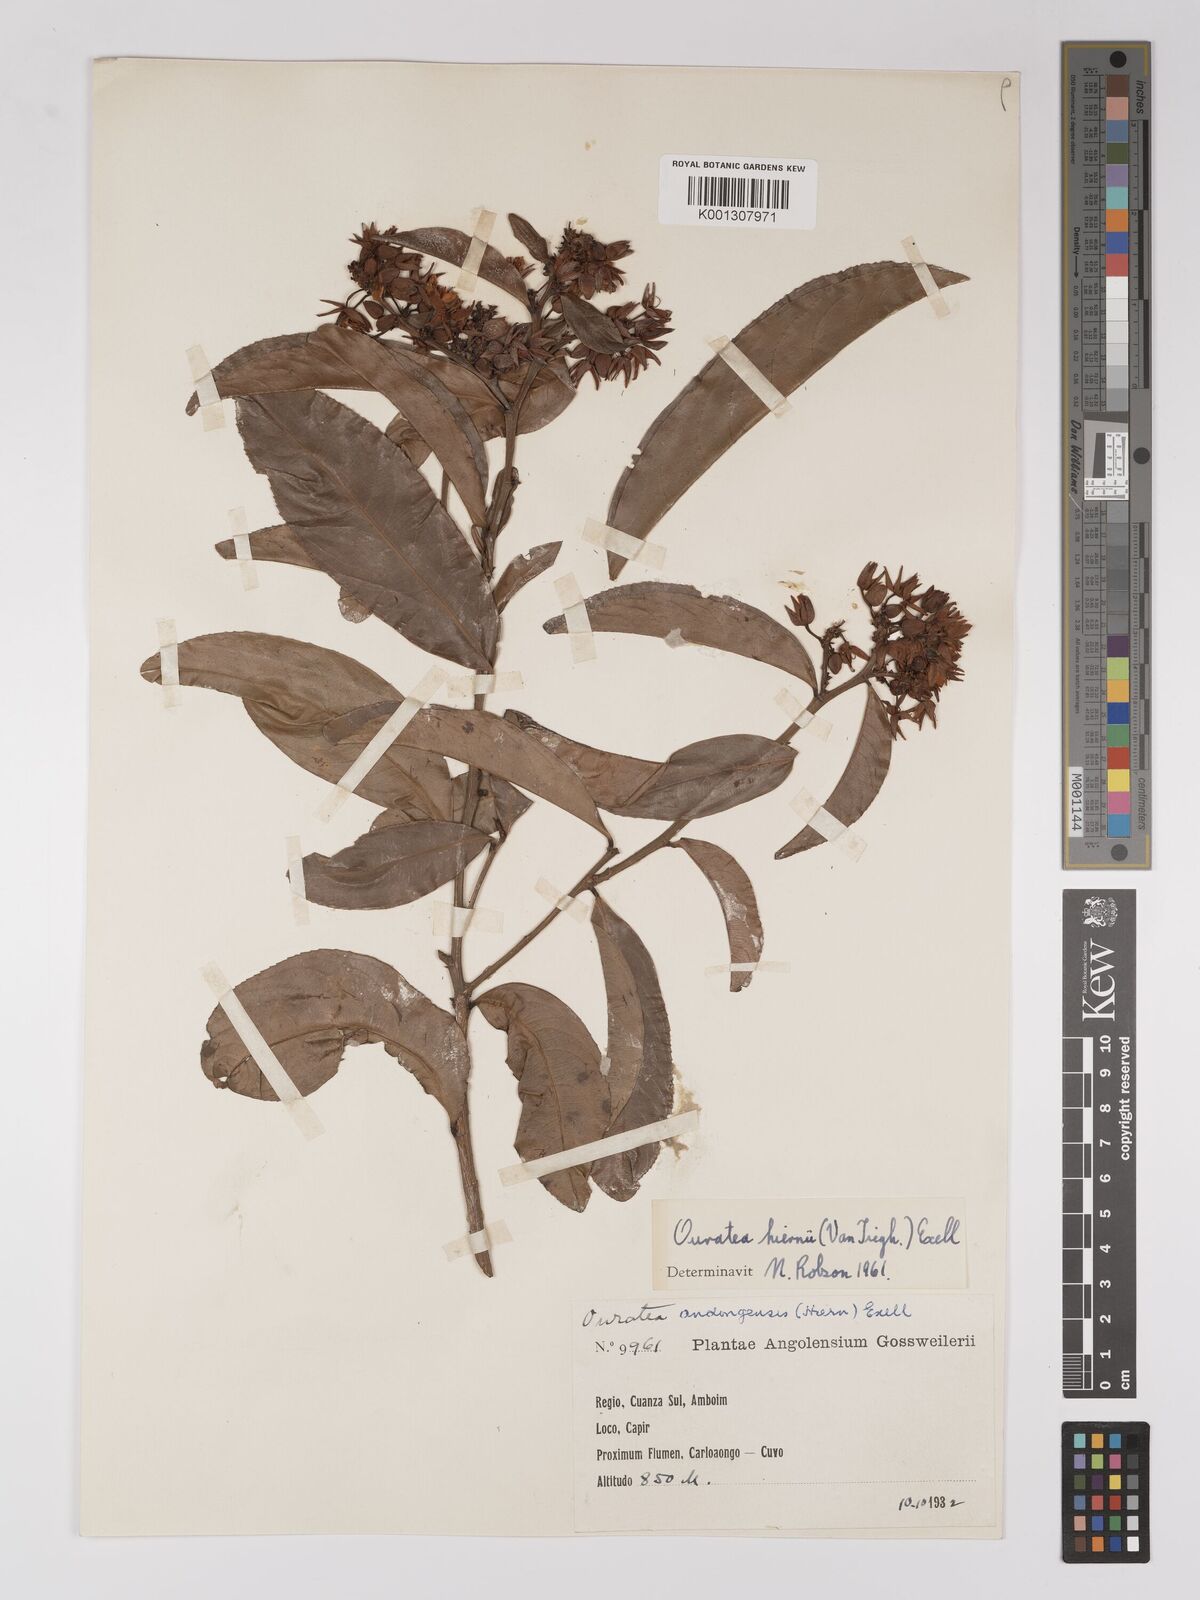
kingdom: Plantae
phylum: Tracheophyta
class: Magnoliopsida
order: Malpighiales
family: Ochnaceae
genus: Campylospermum
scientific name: Campylospermum
